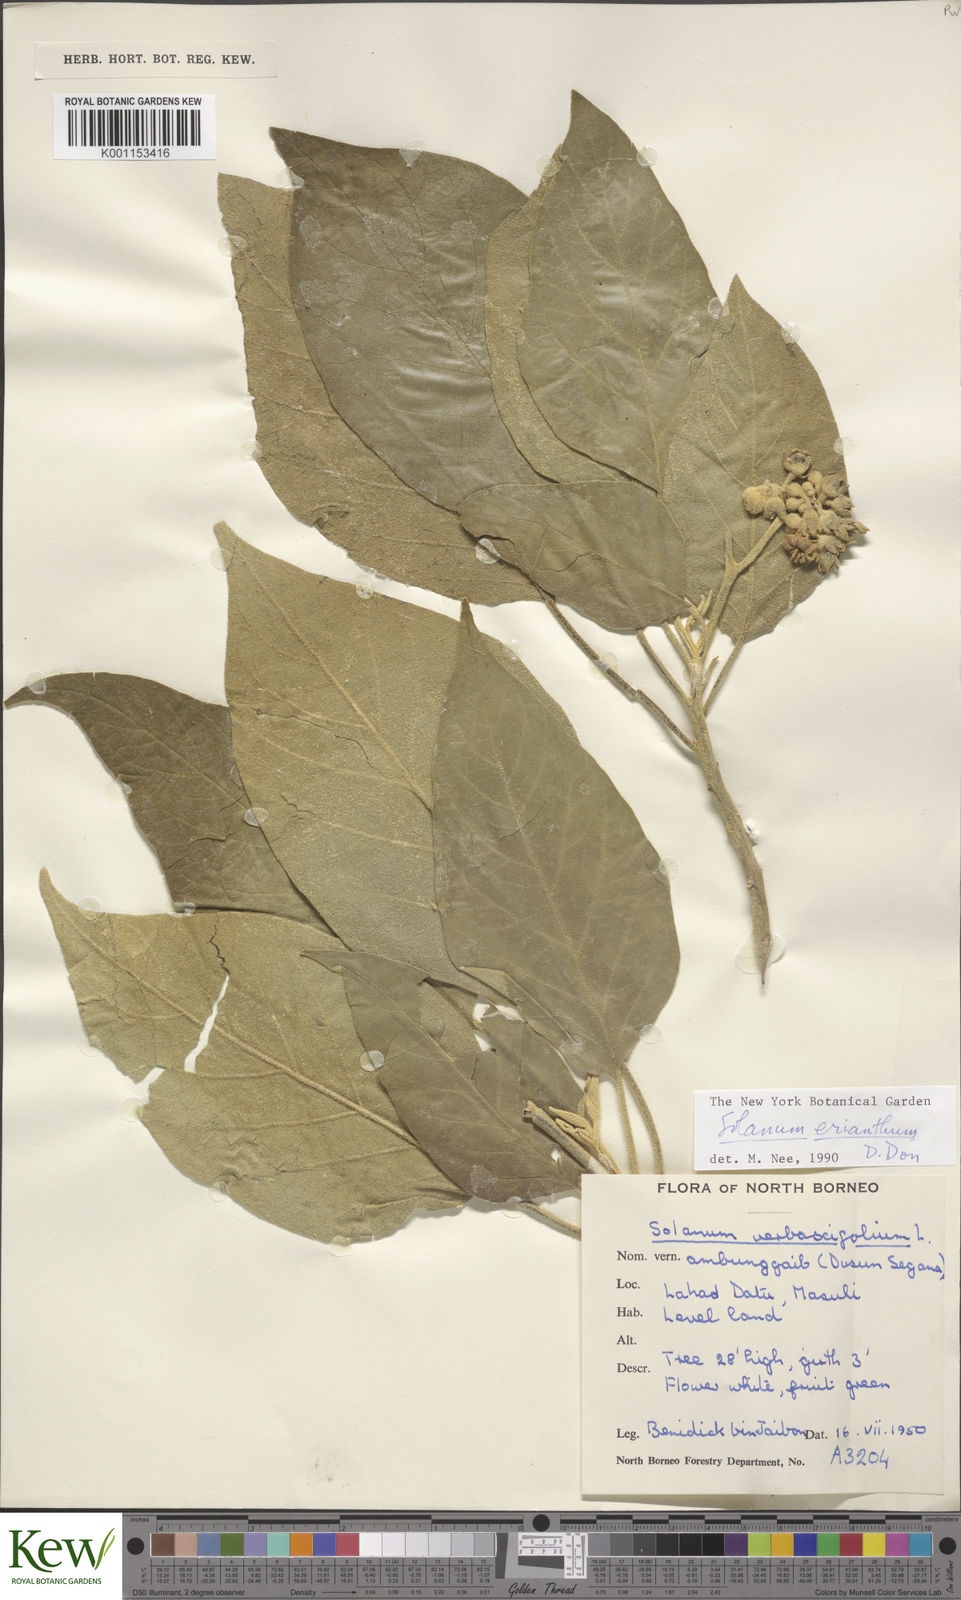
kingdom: Plantae
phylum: Tracheophyta
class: Magnoliopsida
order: Solanales
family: Solanaceae
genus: Solanum
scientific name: Solanum erianthum
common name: Tobacco-tree
